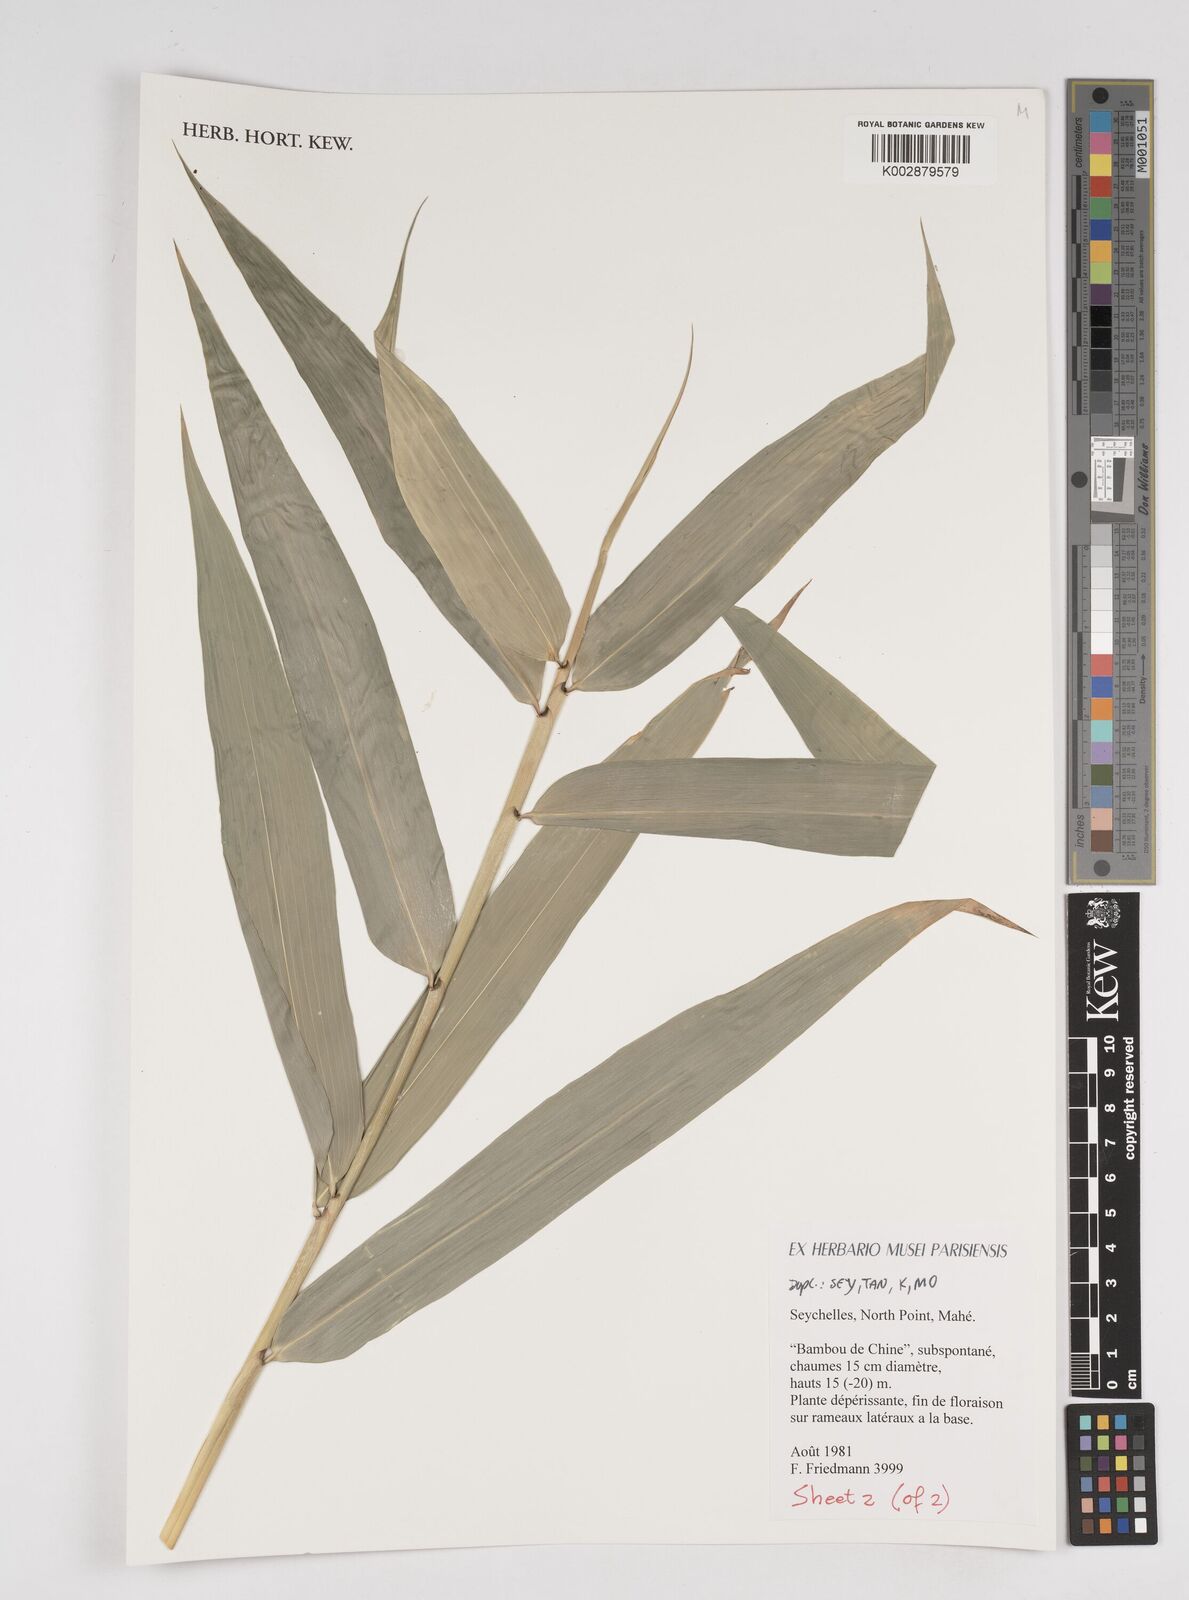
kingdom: Plantae
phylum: Tracheophyta
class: Liliopsida
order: Poales
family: Poaceae
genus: Dendrocalamus
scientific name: Dendrocalamus
